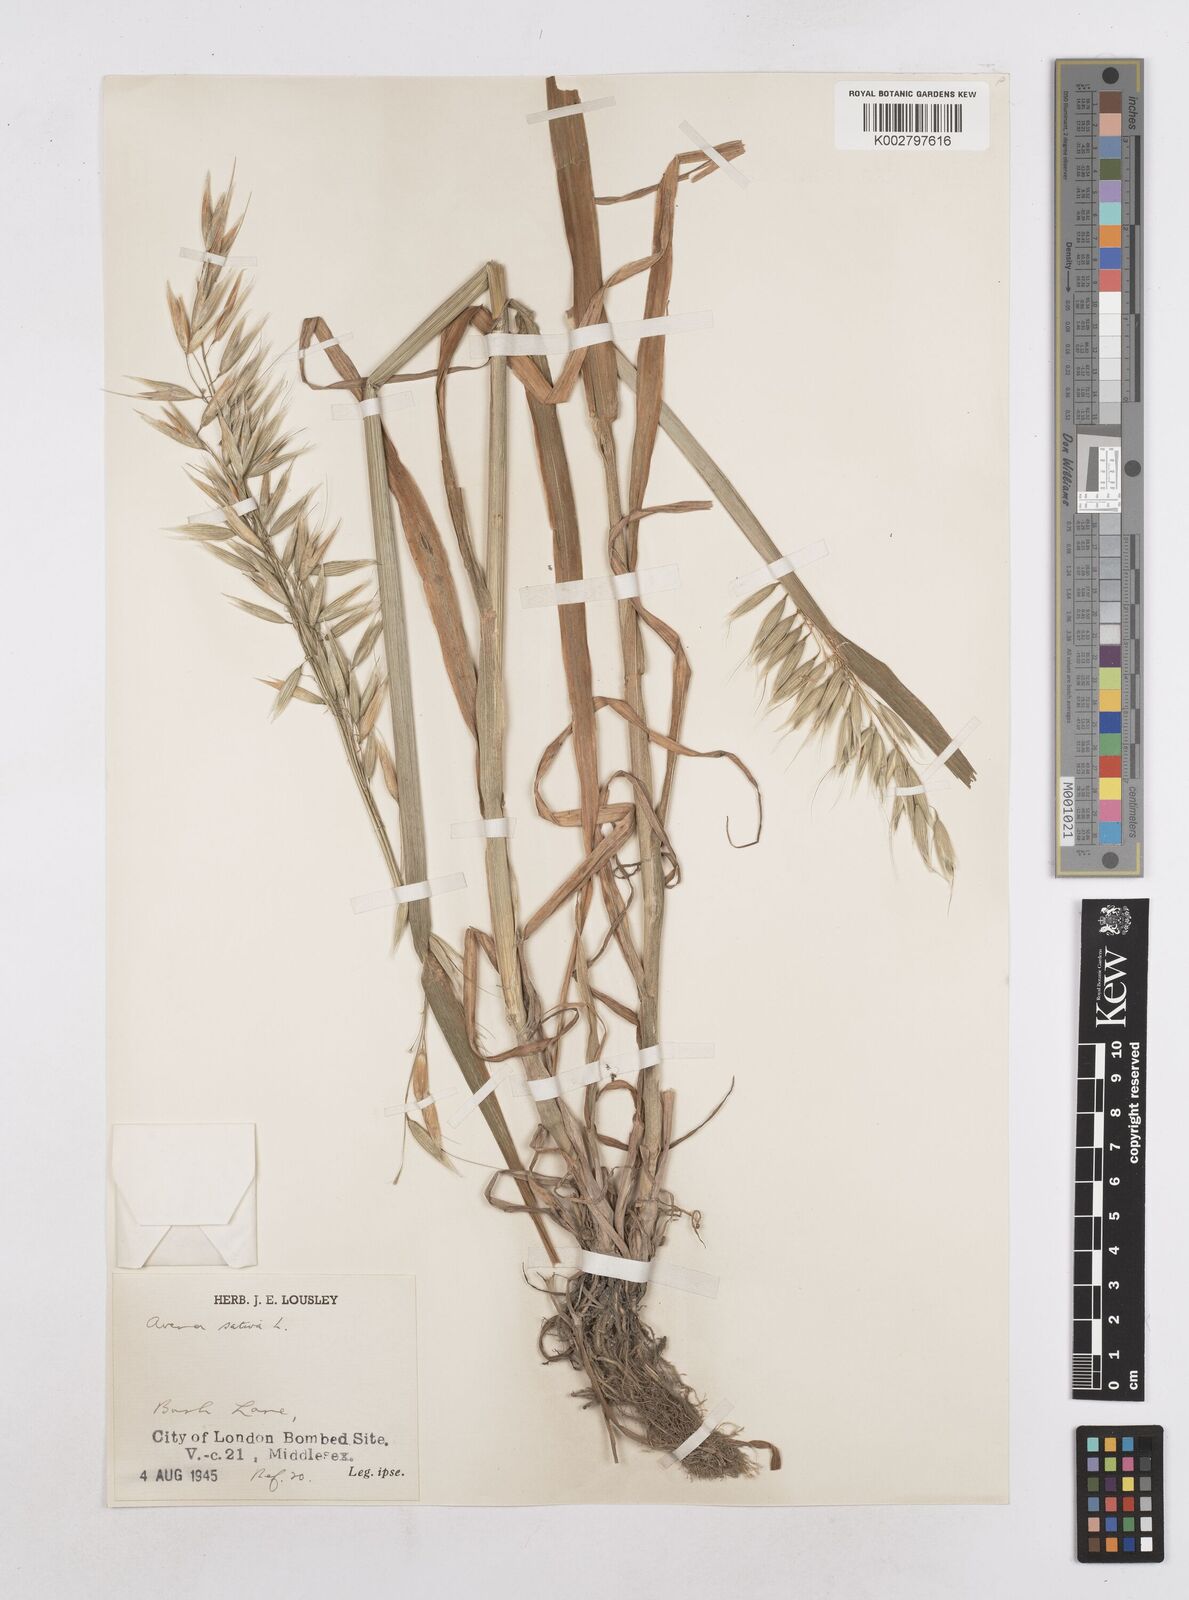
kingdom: Plantae
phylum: Tracheophyta
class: Liliopsida
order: Poales
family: Poaceae
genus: Avena
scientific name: Avena sativa
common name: Oat
